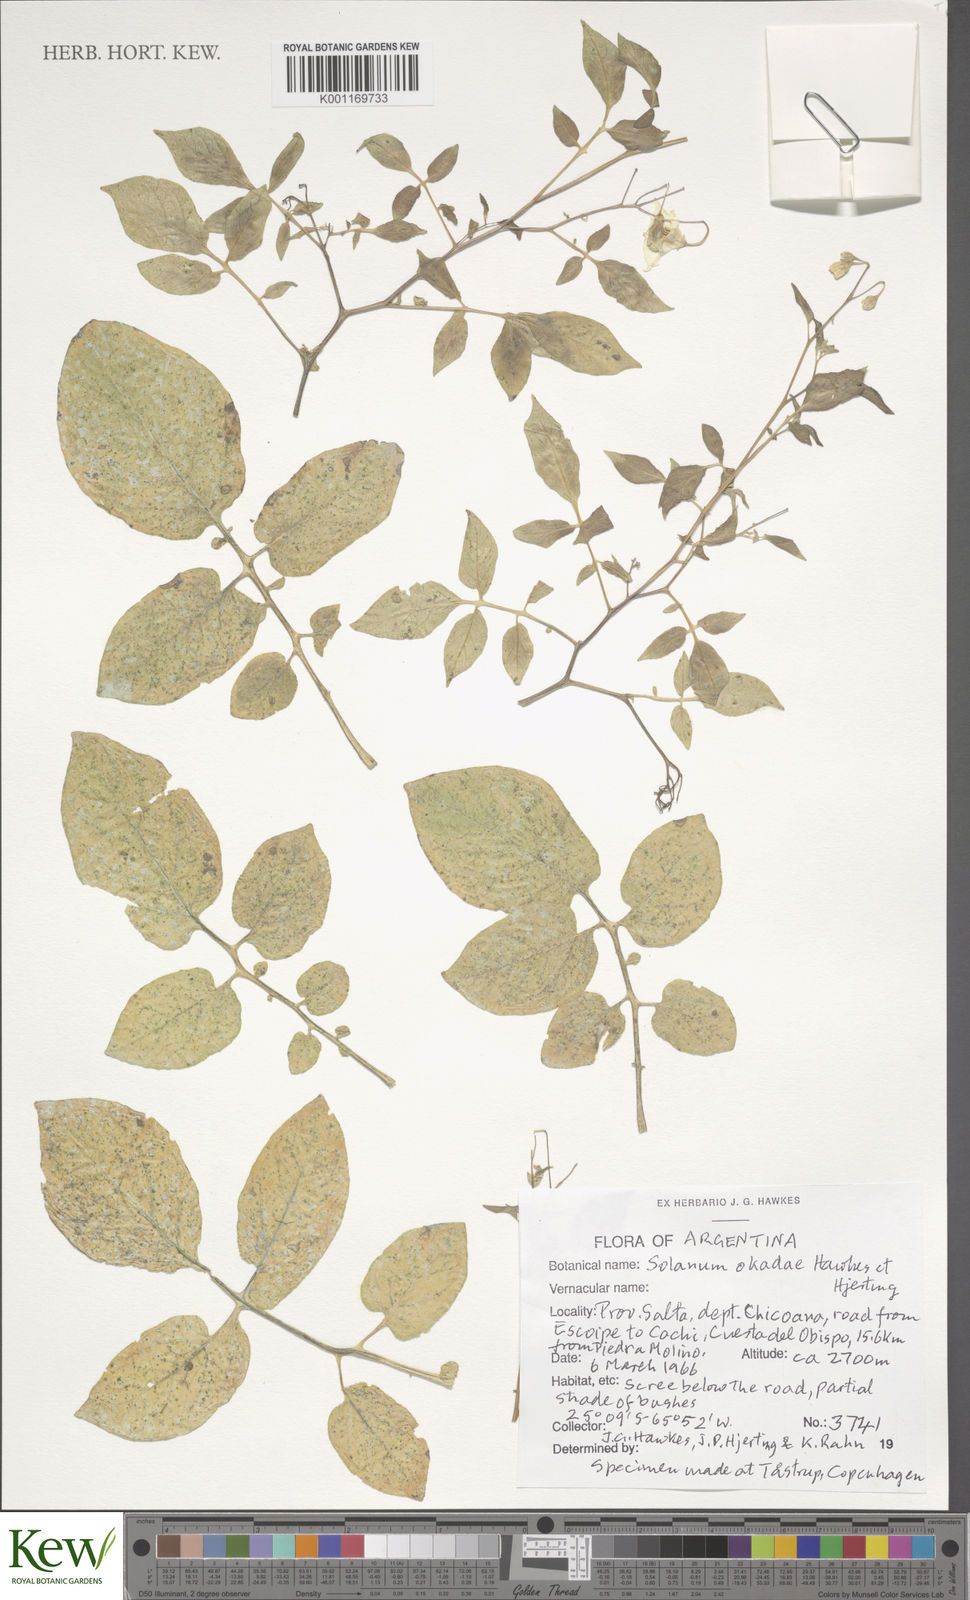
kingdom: Plantae
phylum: Tracheophyta
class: Magnoliopsida
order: Solanales
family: Solanaceae
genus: Solanum
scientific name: Solanum okadae
